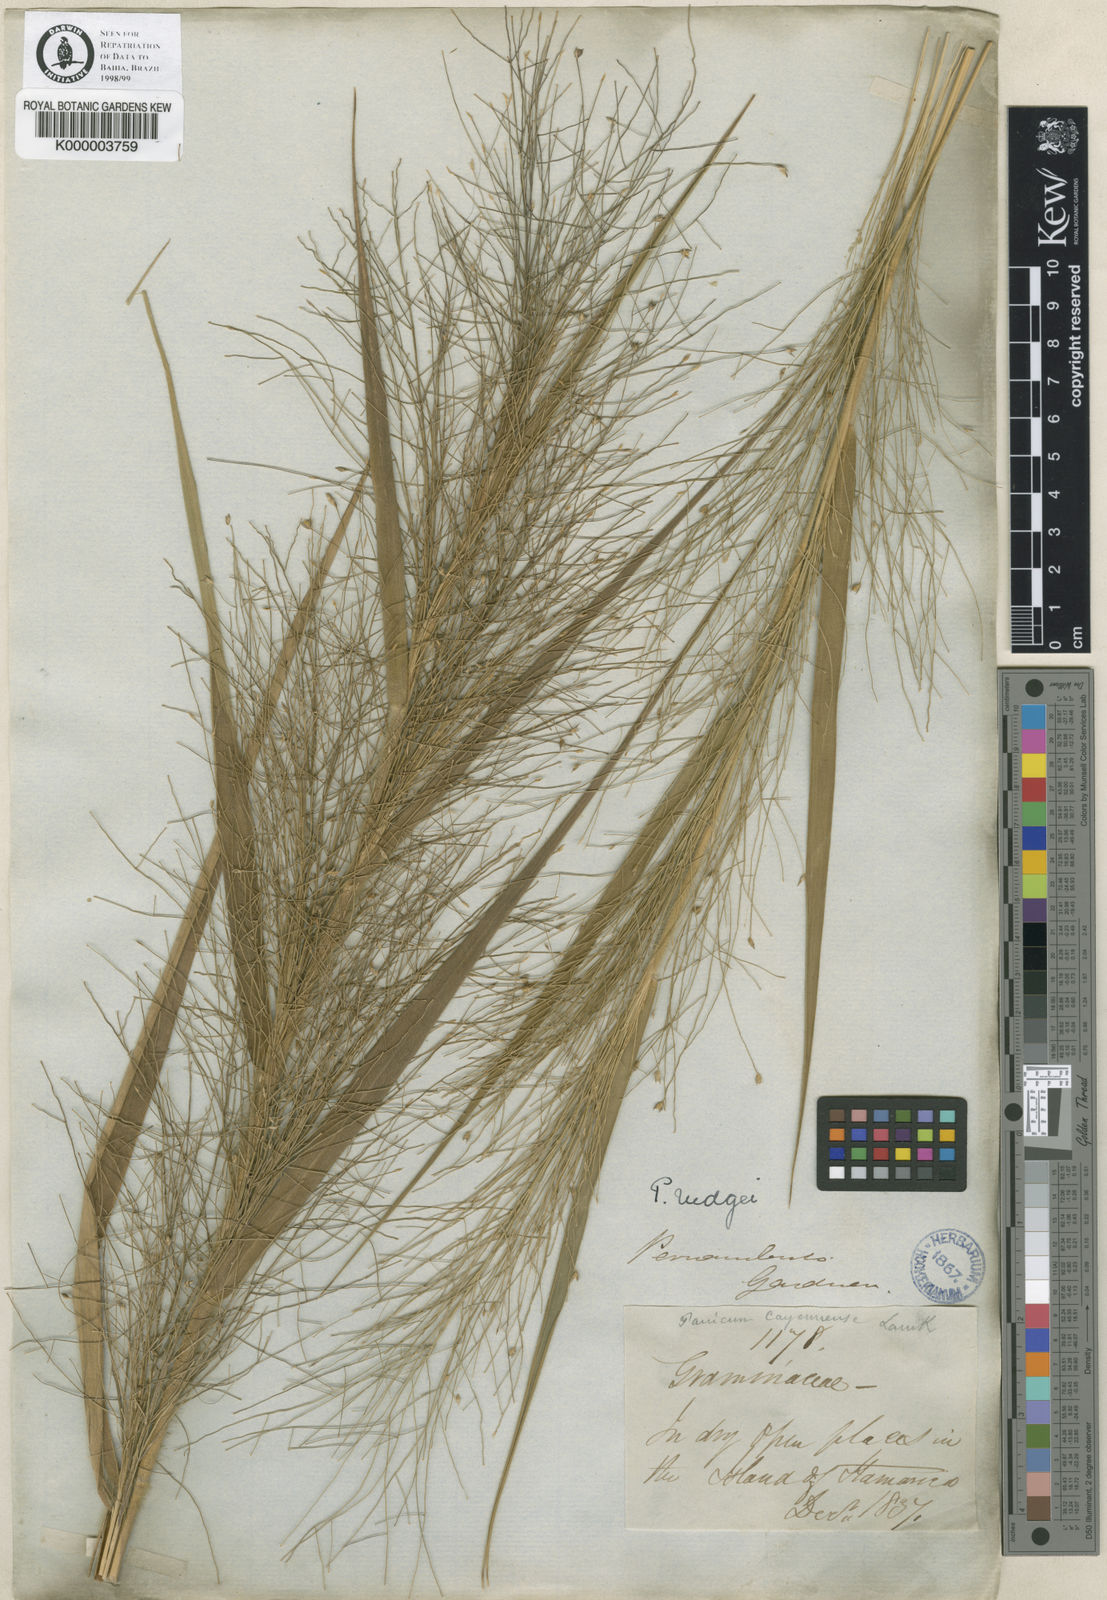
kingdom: Plantae
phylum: Tracheophyta
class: Liliopsida
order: Poales
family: Poaceae
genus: Panicum
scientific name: Panicum rudgei
